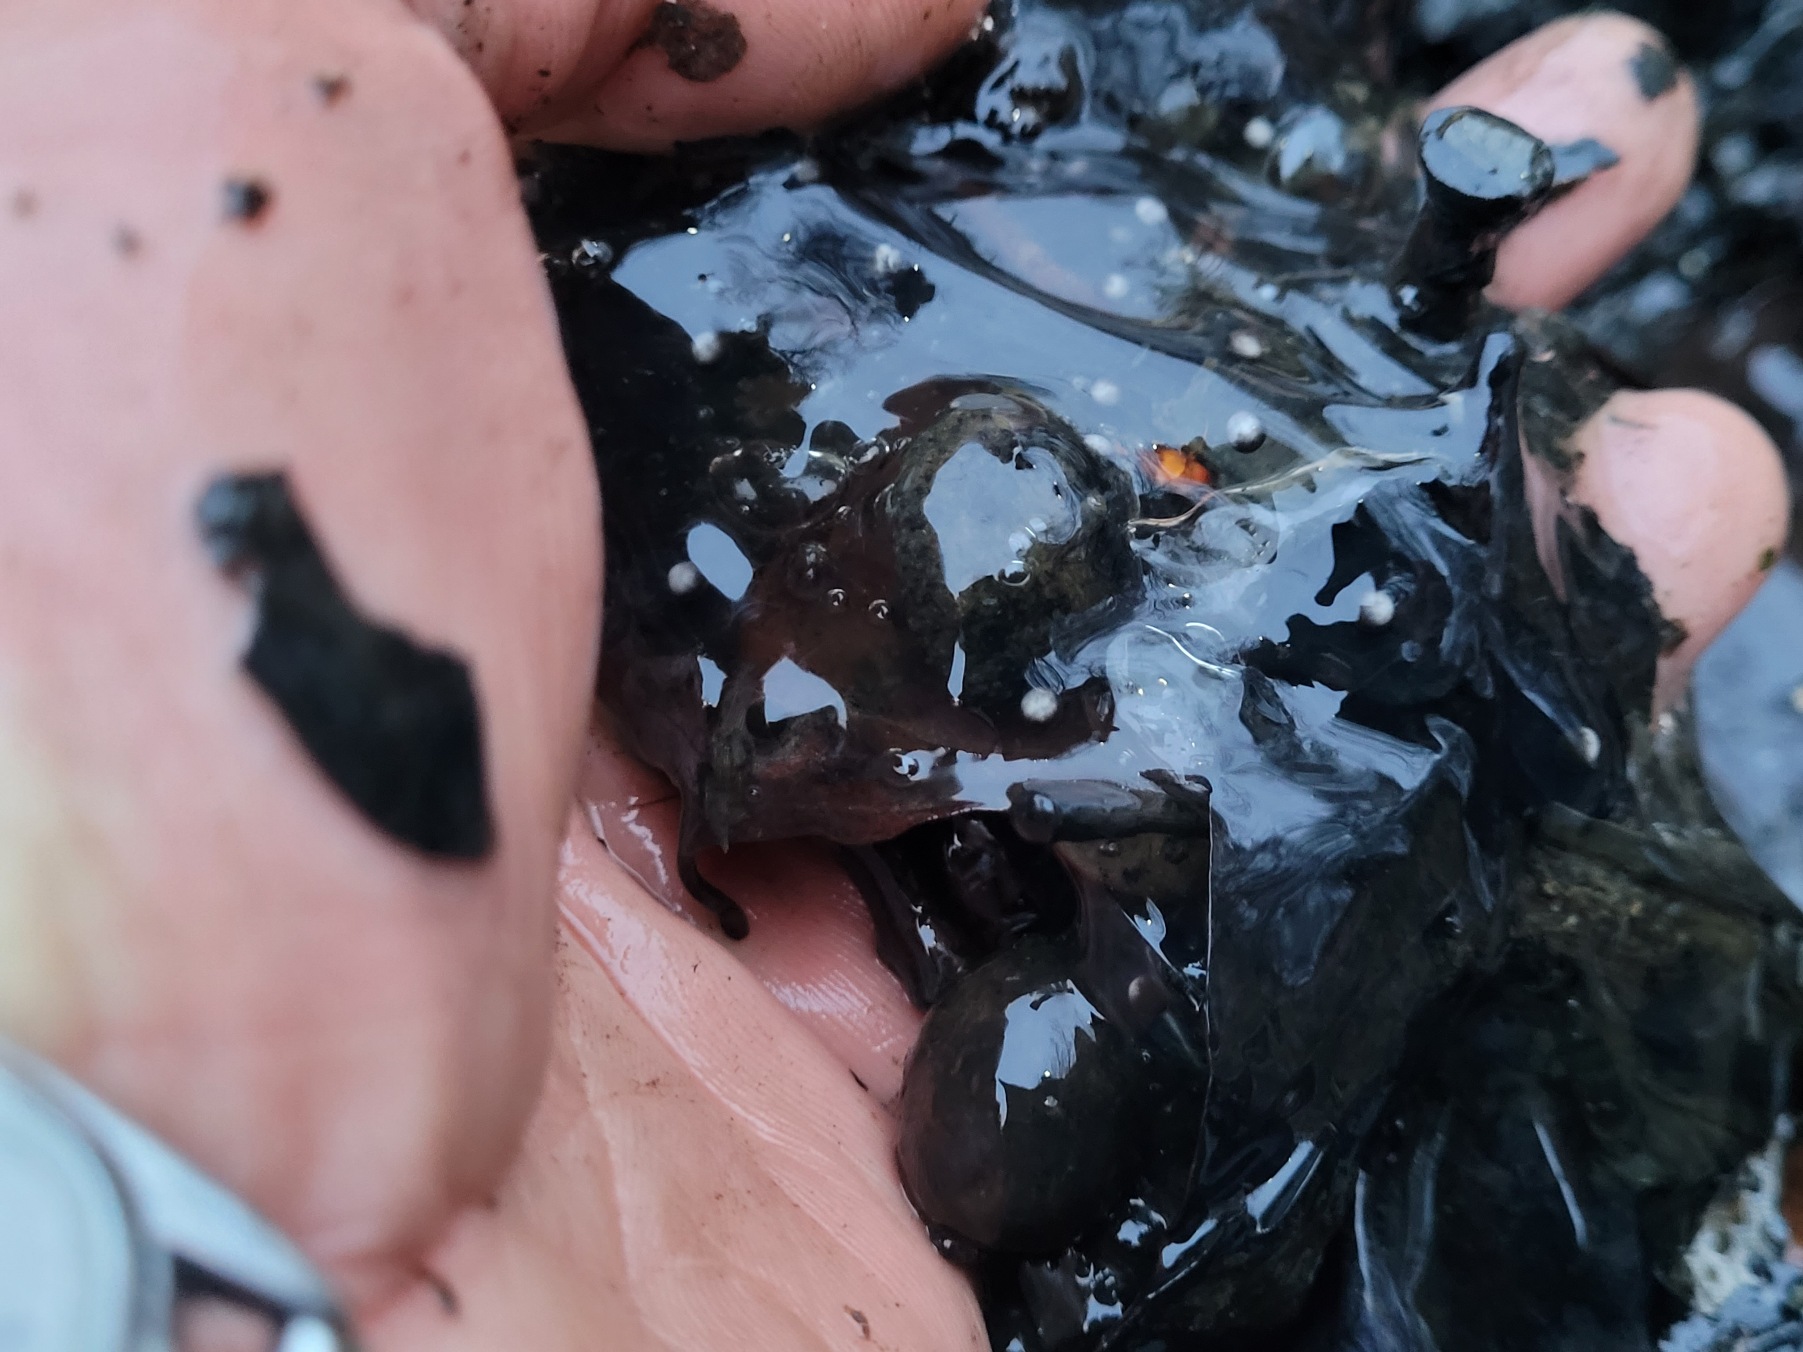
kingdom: Animalia
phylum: Chordata
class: Amphibia
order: Anura
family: Ranidae
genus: Rana
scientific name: Rana dalmatina
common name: Springfrø
